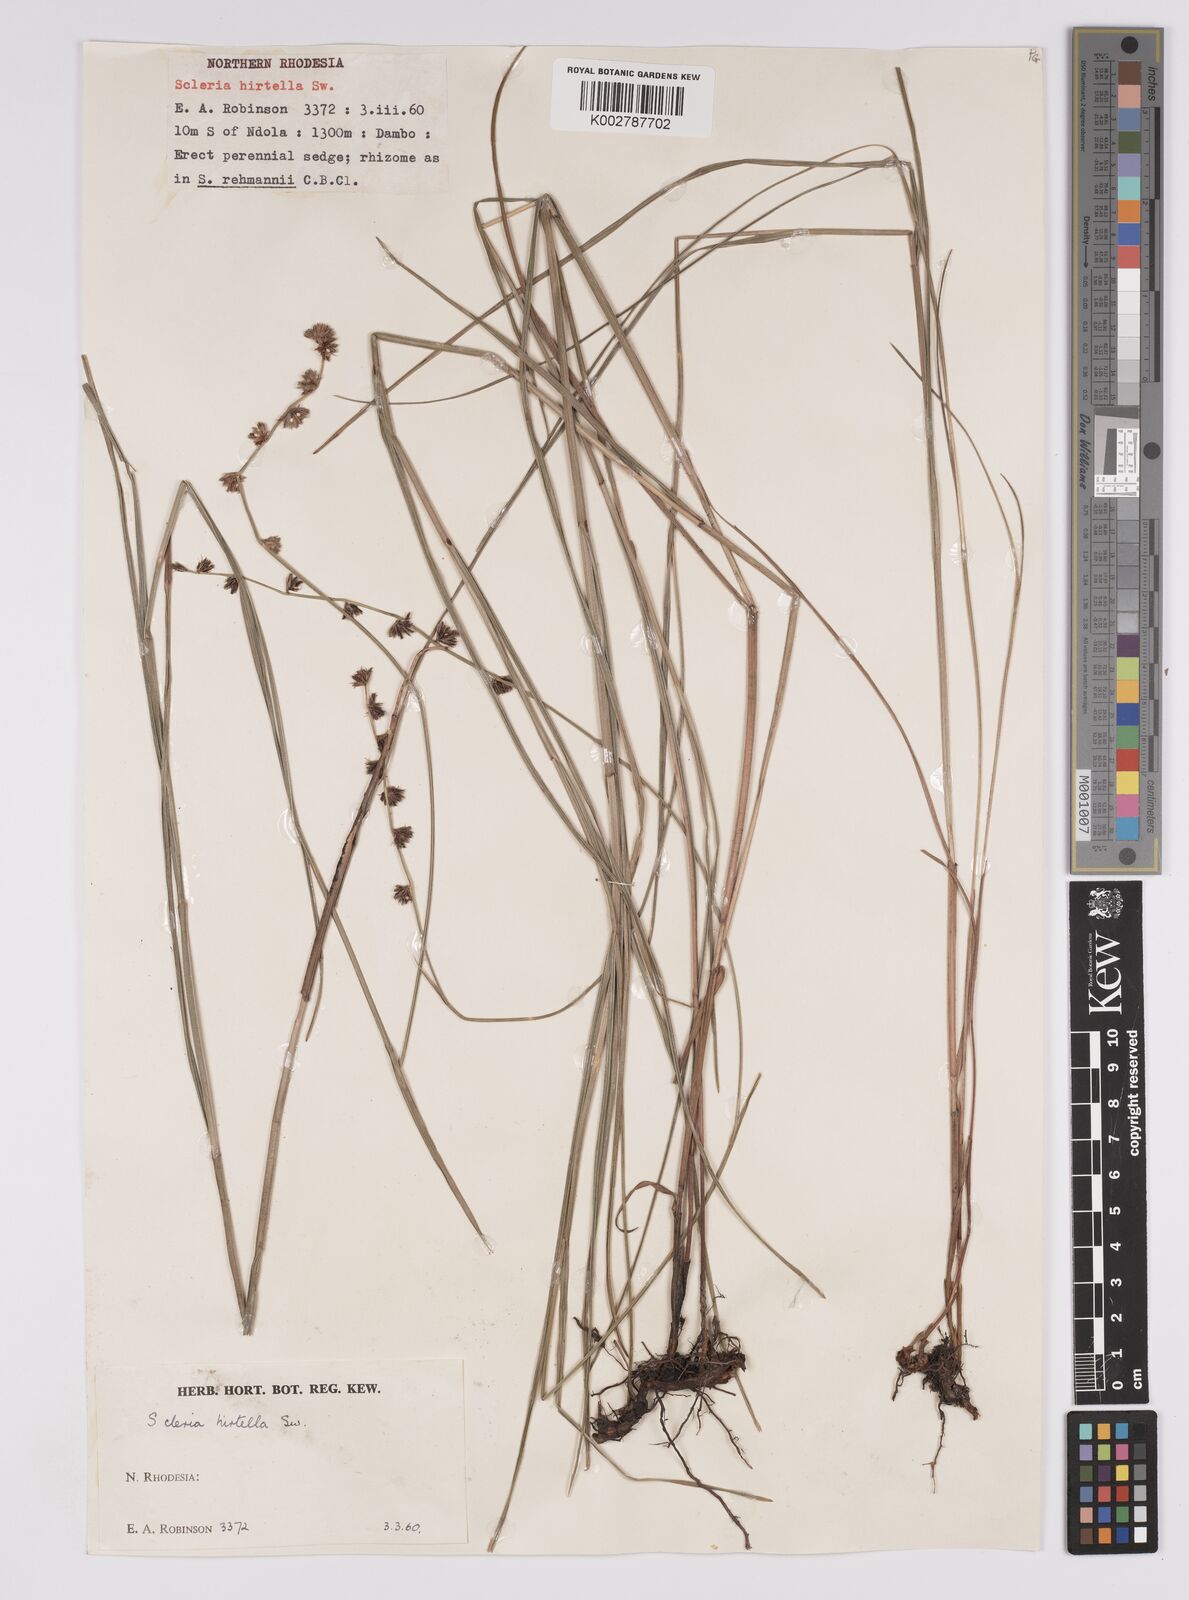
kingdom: Plantae
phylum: Tracheophyta
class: Liliopsida
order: Poales
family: Cyperaceae
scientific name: Cyperaceae
